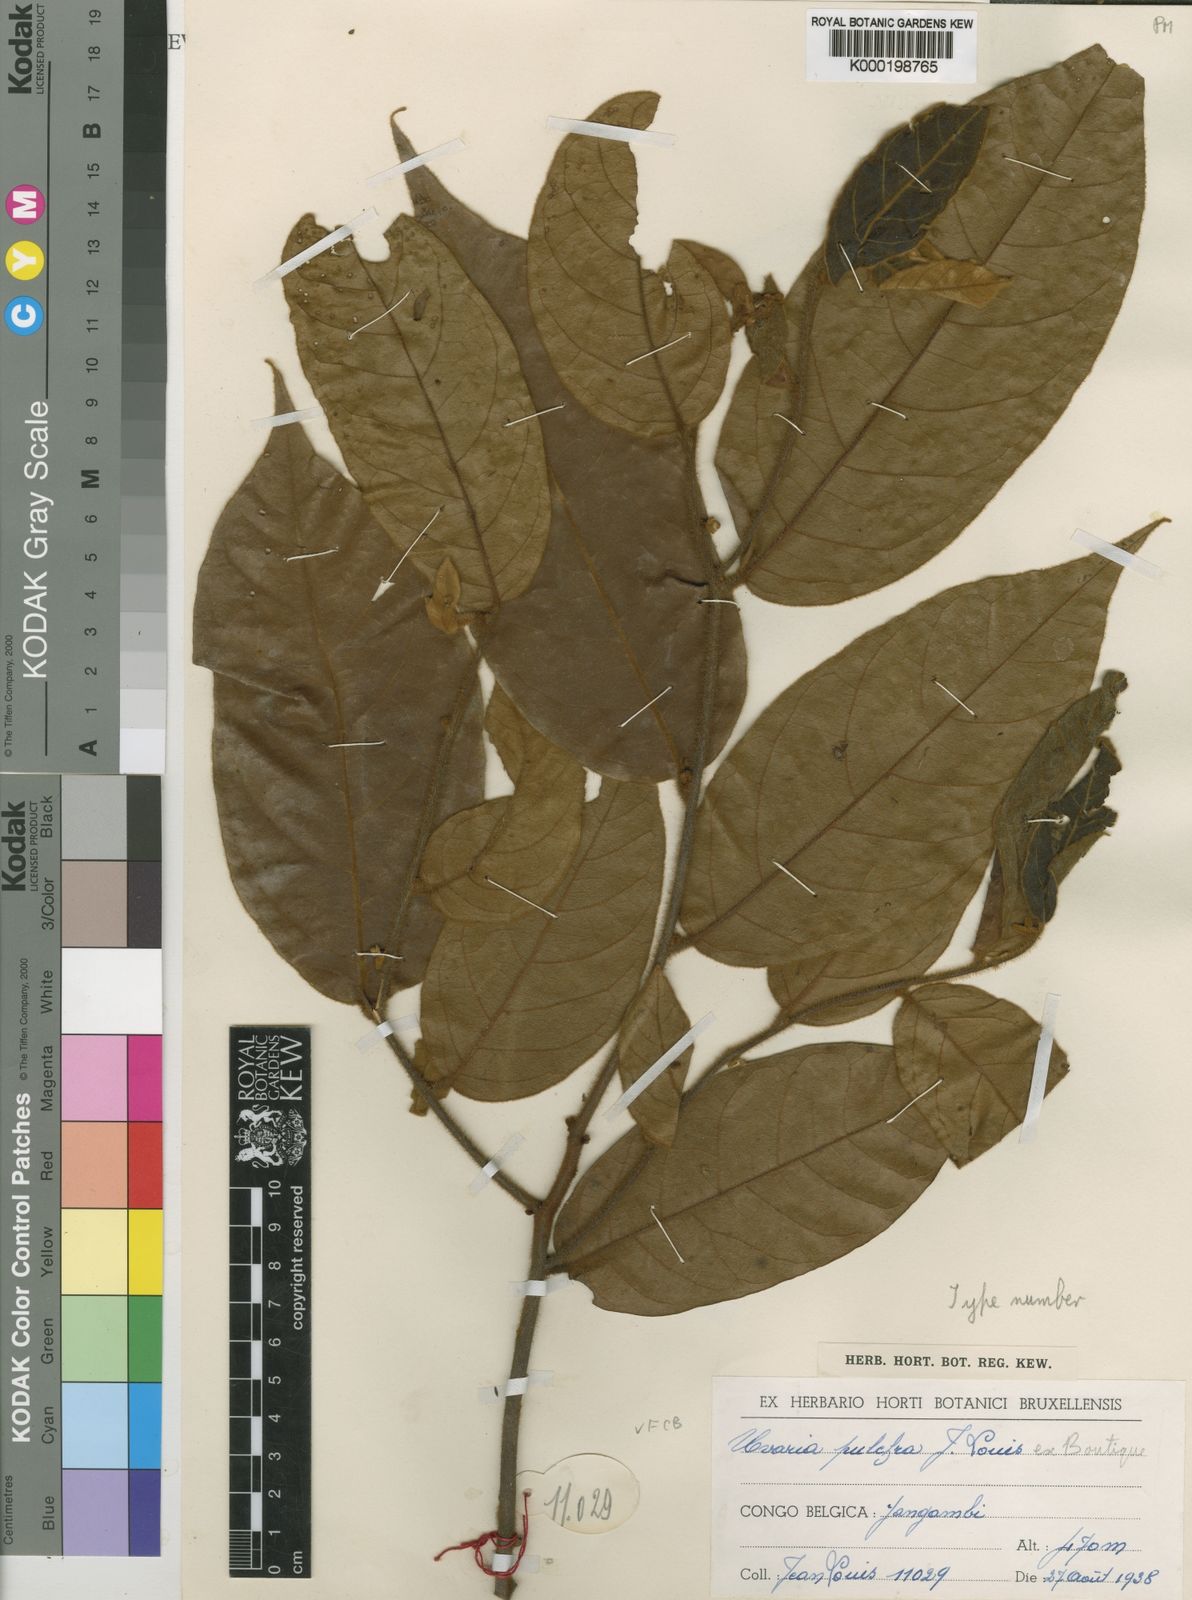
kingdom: Plantae
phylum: Tracheophyta
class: Magnoliopsida
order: Magnoliales
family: Annonaceae
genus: Uvaria
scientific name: Uvaria pulchra
